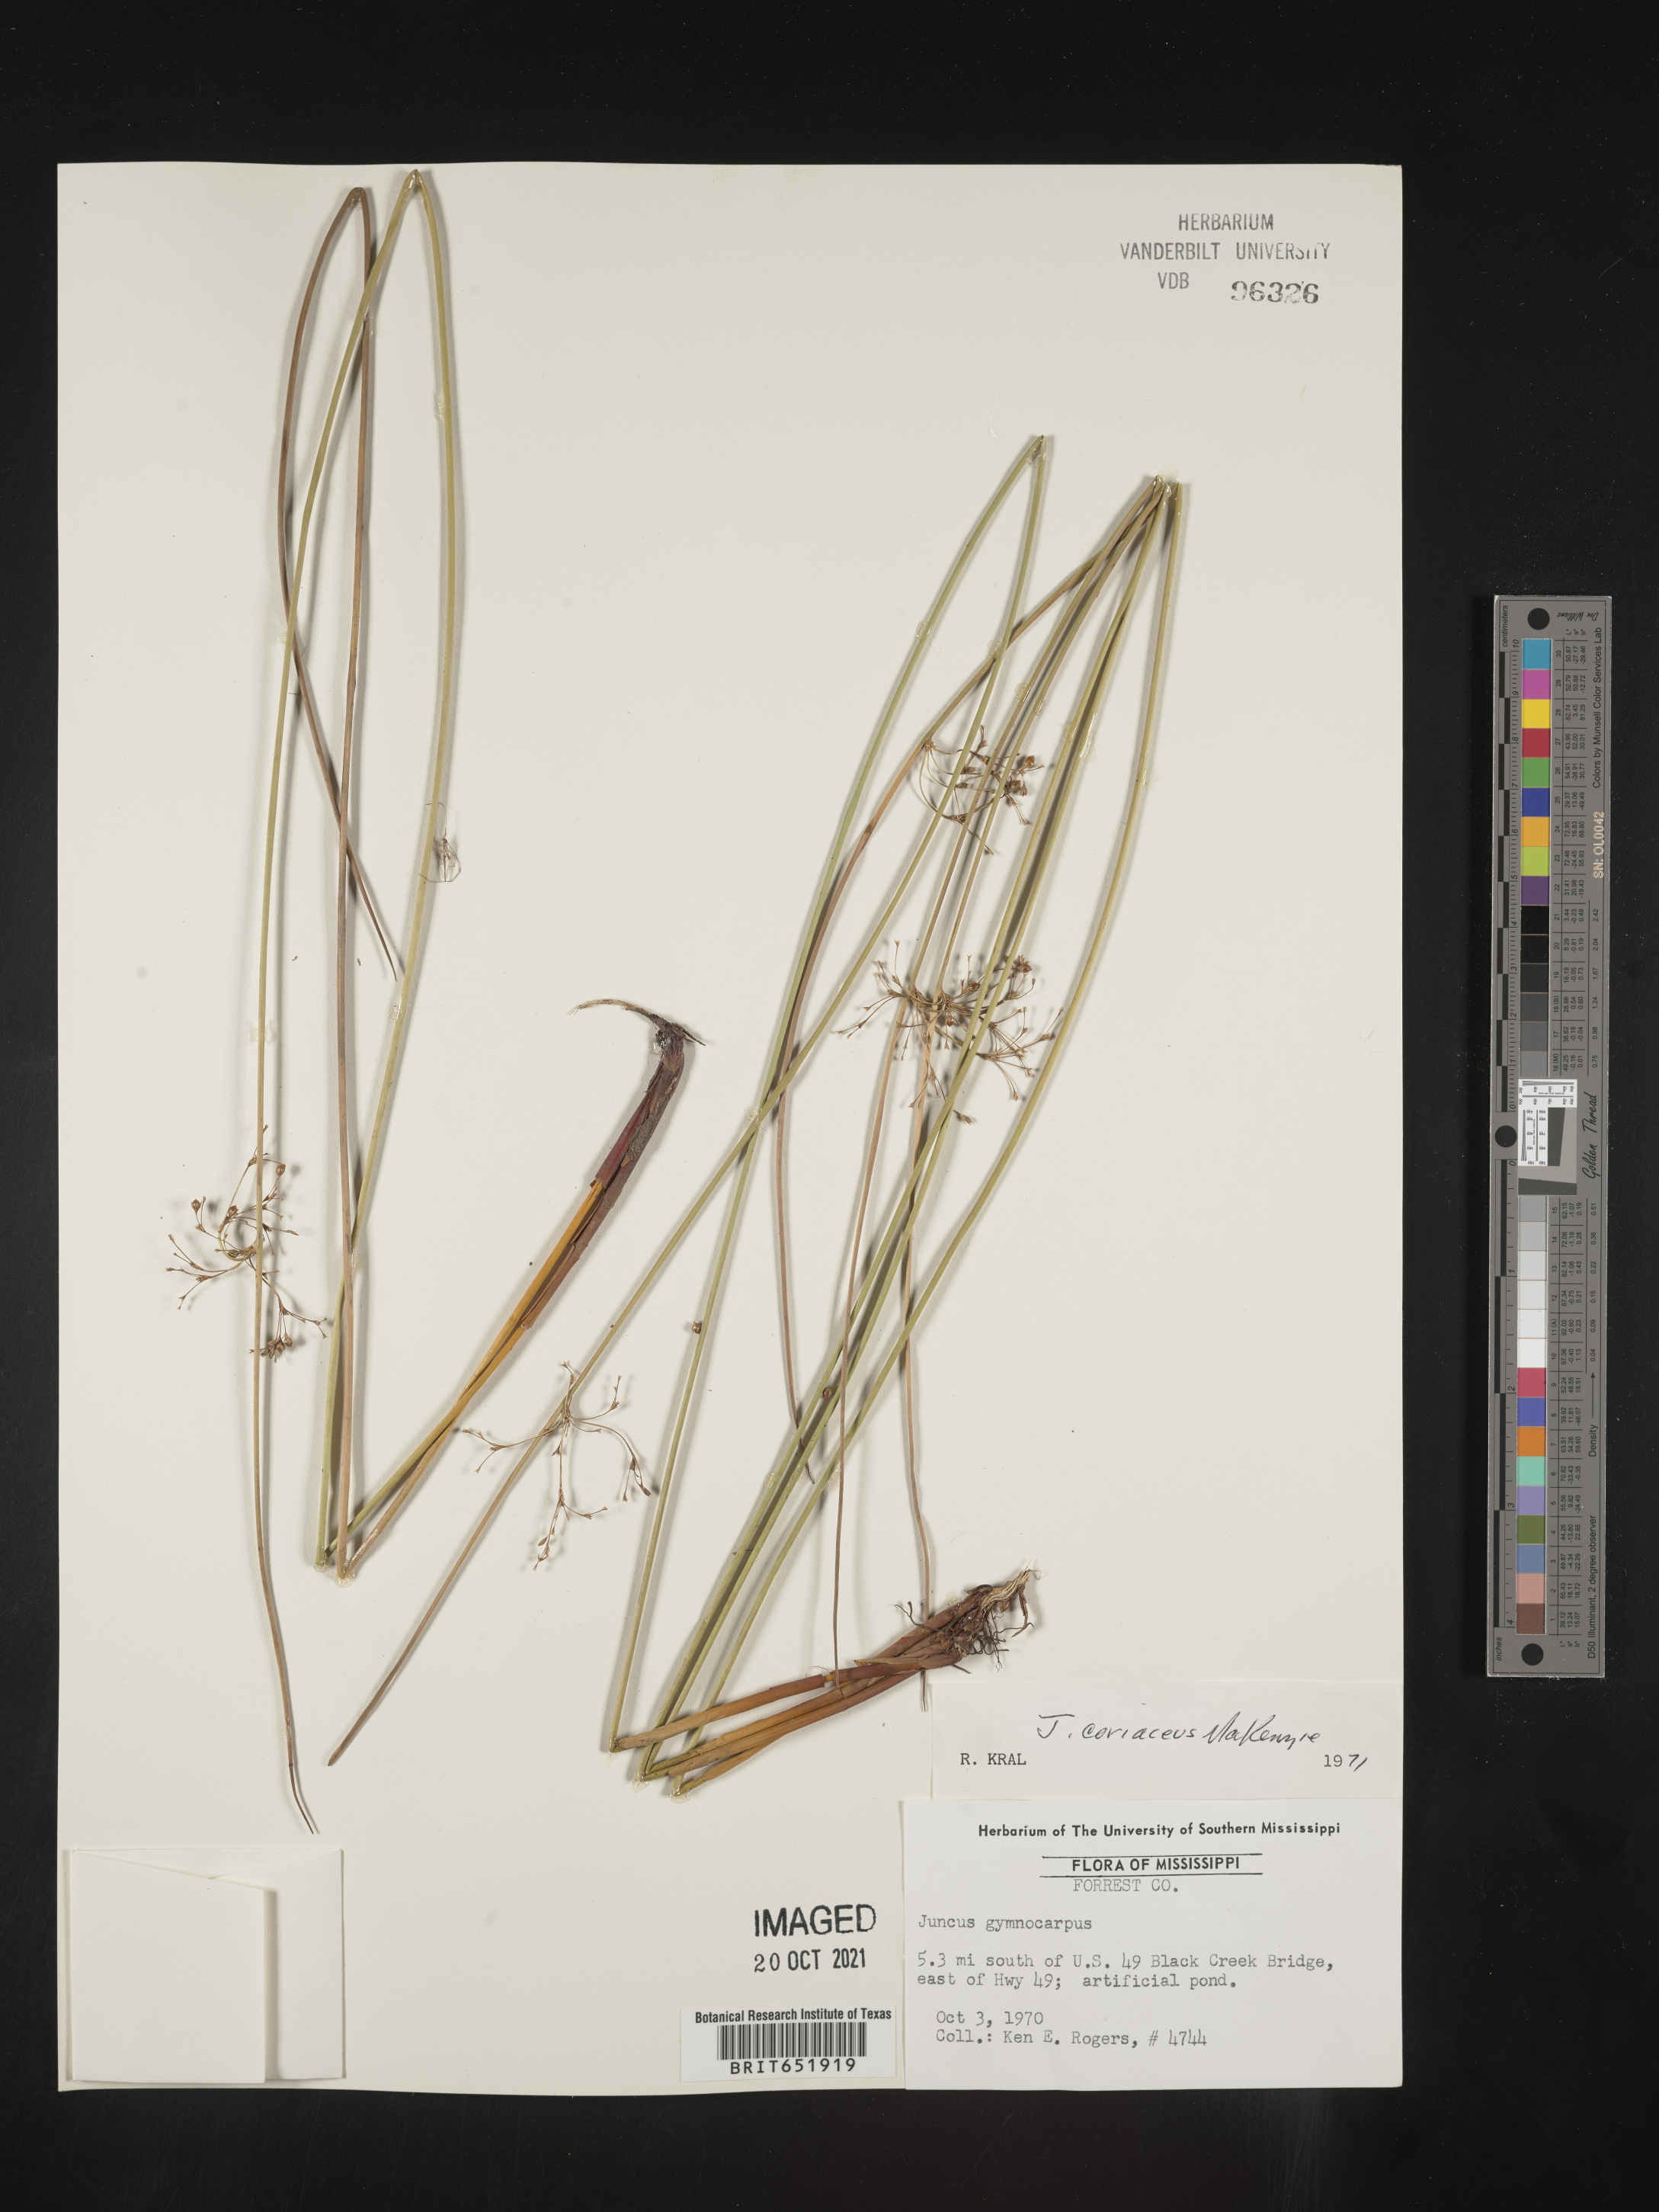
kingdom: Plantae
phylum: Tracheophyta
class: Liliopsida
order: Poales
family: Juncaceae
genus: Juncus
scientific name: Juncus coriaceus
